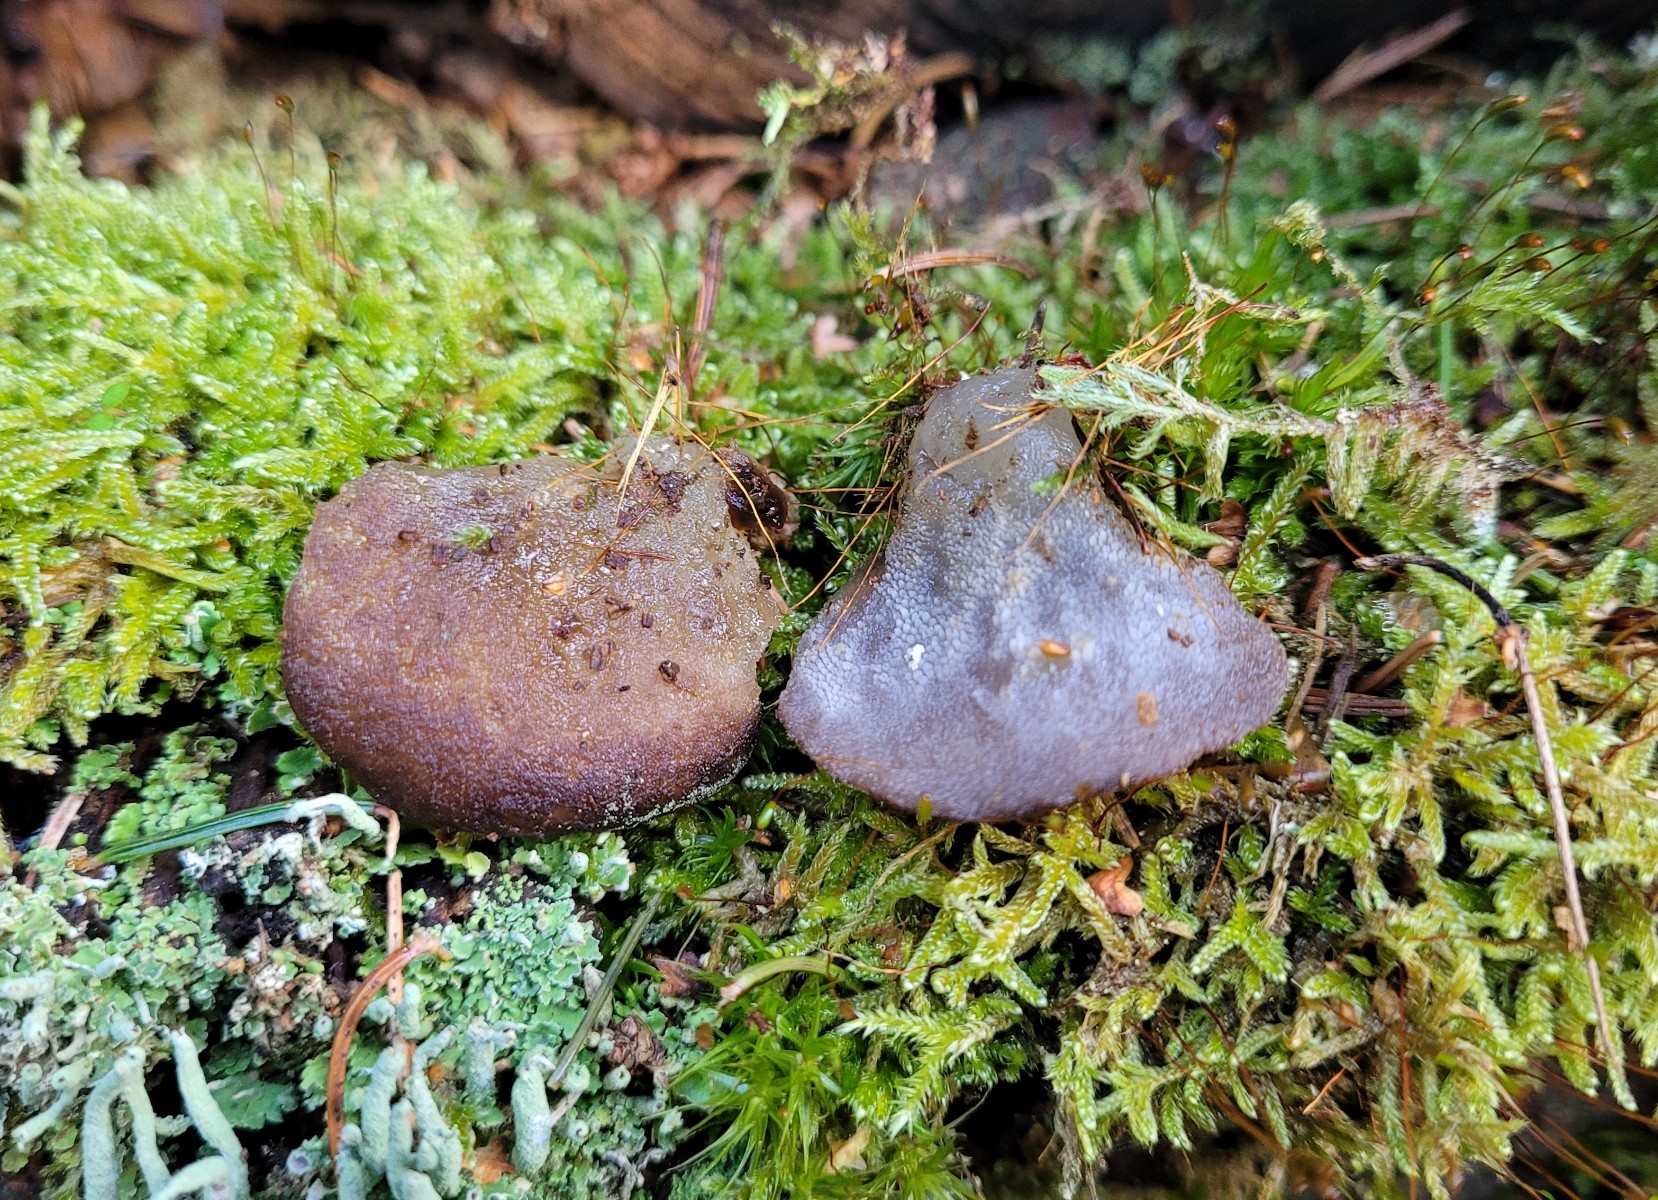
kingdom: Fungi
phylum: Basidiomycota
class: Agaricomycetes
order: Auriculariales
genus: Pseudohydnum
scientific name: Pseudohydnum gelatinosum
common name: bævretand
